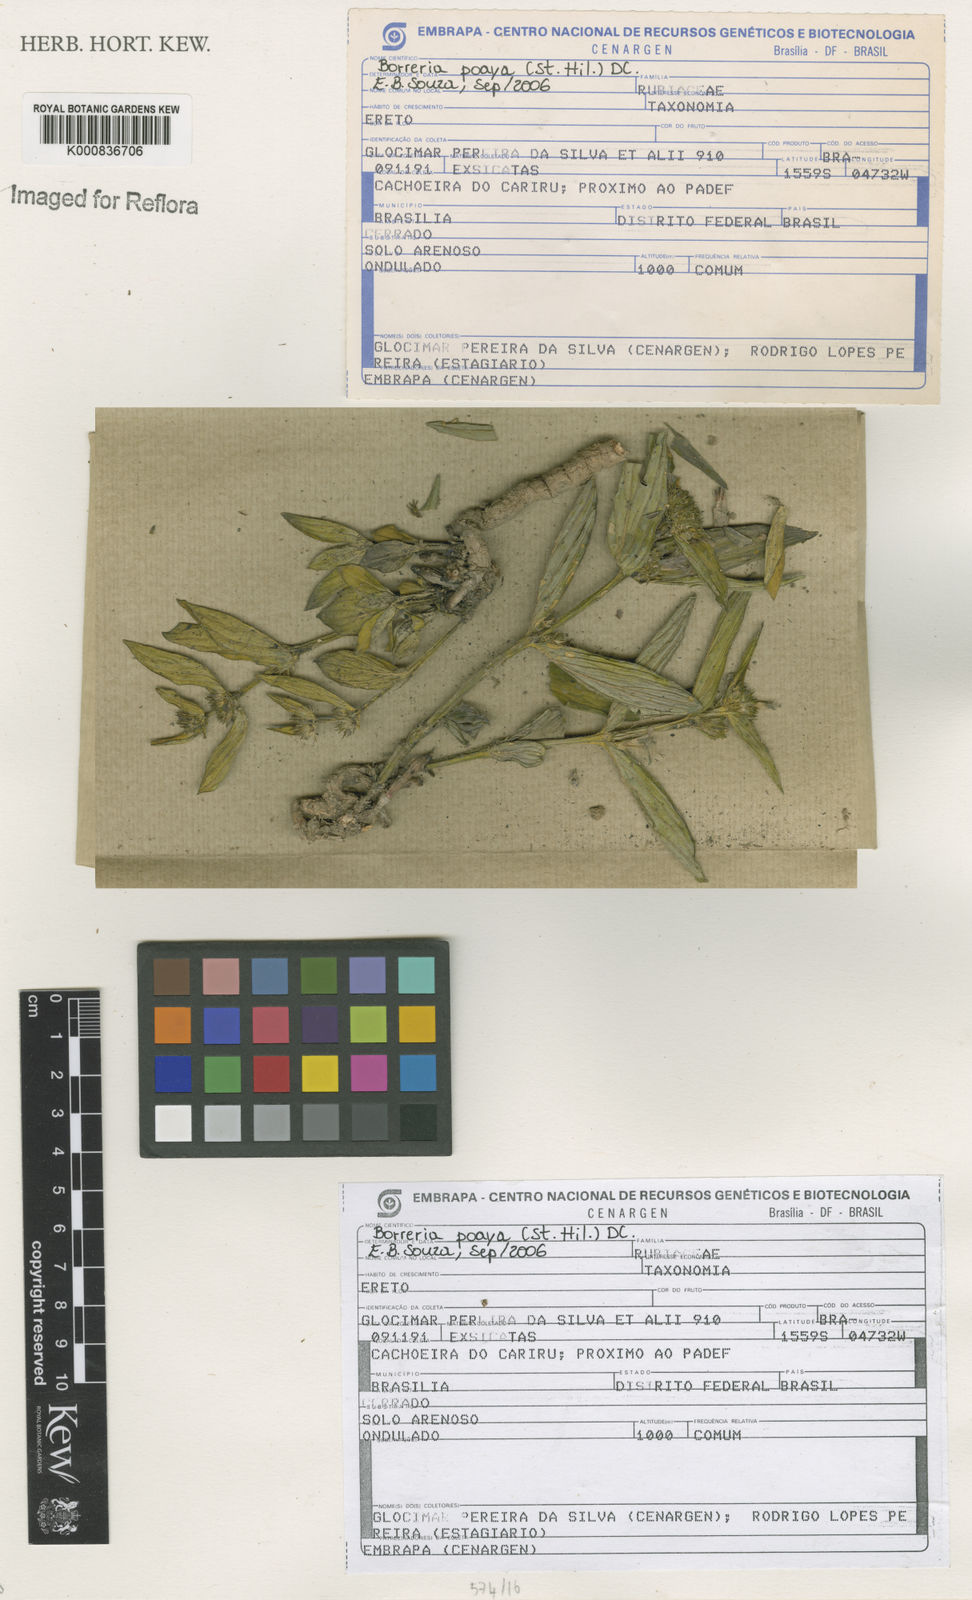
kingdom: Plantae
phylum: Tracheophyta
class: Magnoliopsida
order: Gentianales
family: Rubiaceae
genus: Spermacoce
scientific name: Spermacoce poaya
